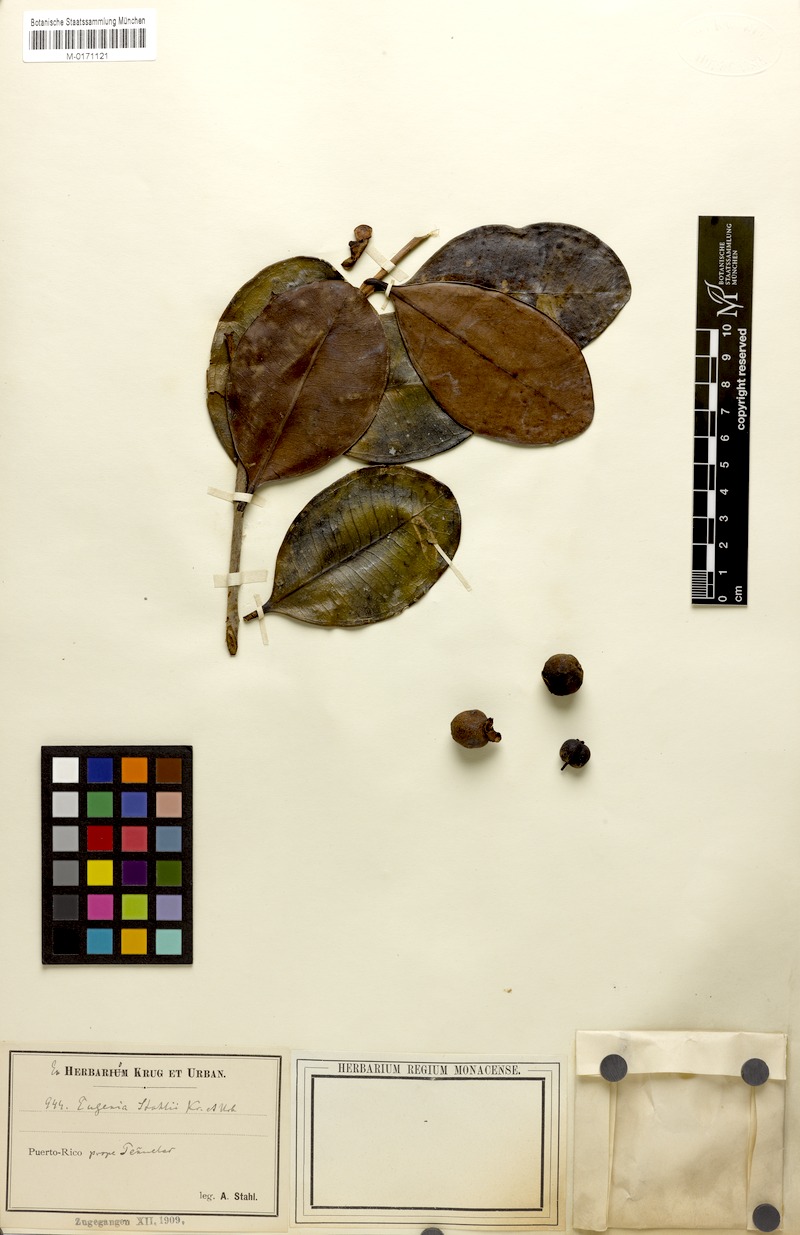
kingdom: Plantae
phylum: Tracheophyta
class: Magnoliopsida
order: Myrtales
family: Myrtaceae
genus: Eugenia
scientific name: Eugenia stahlii
